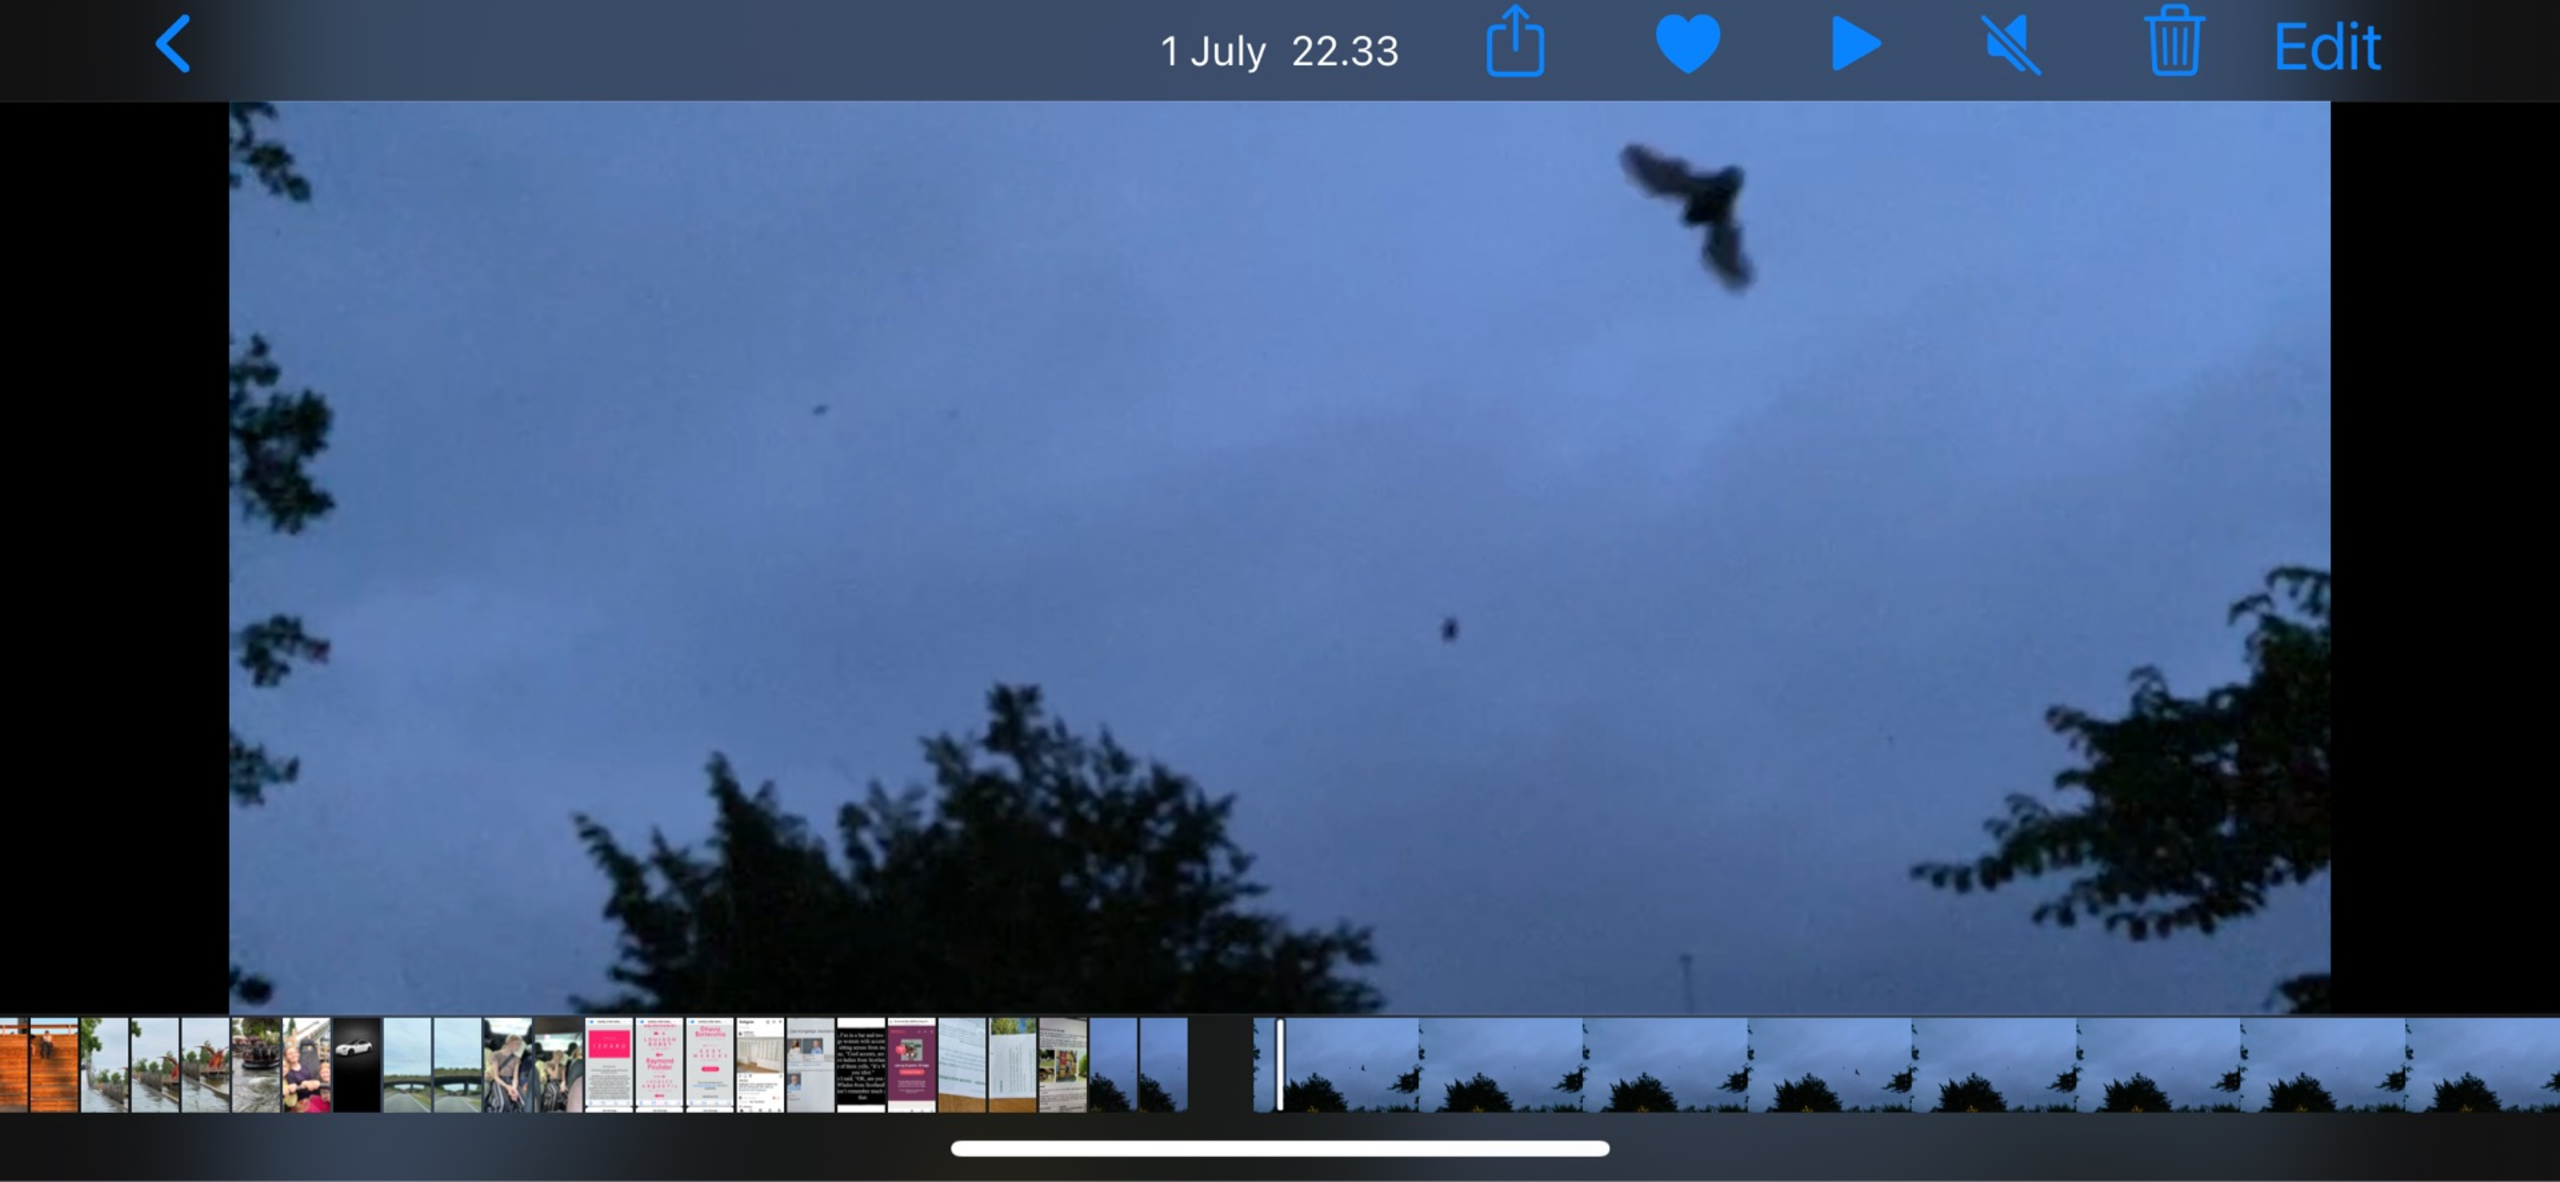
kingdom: Animalia
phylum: Chordata
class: Mammalia
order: Chiroptera
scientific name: Chiroptera
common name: Flagermus
